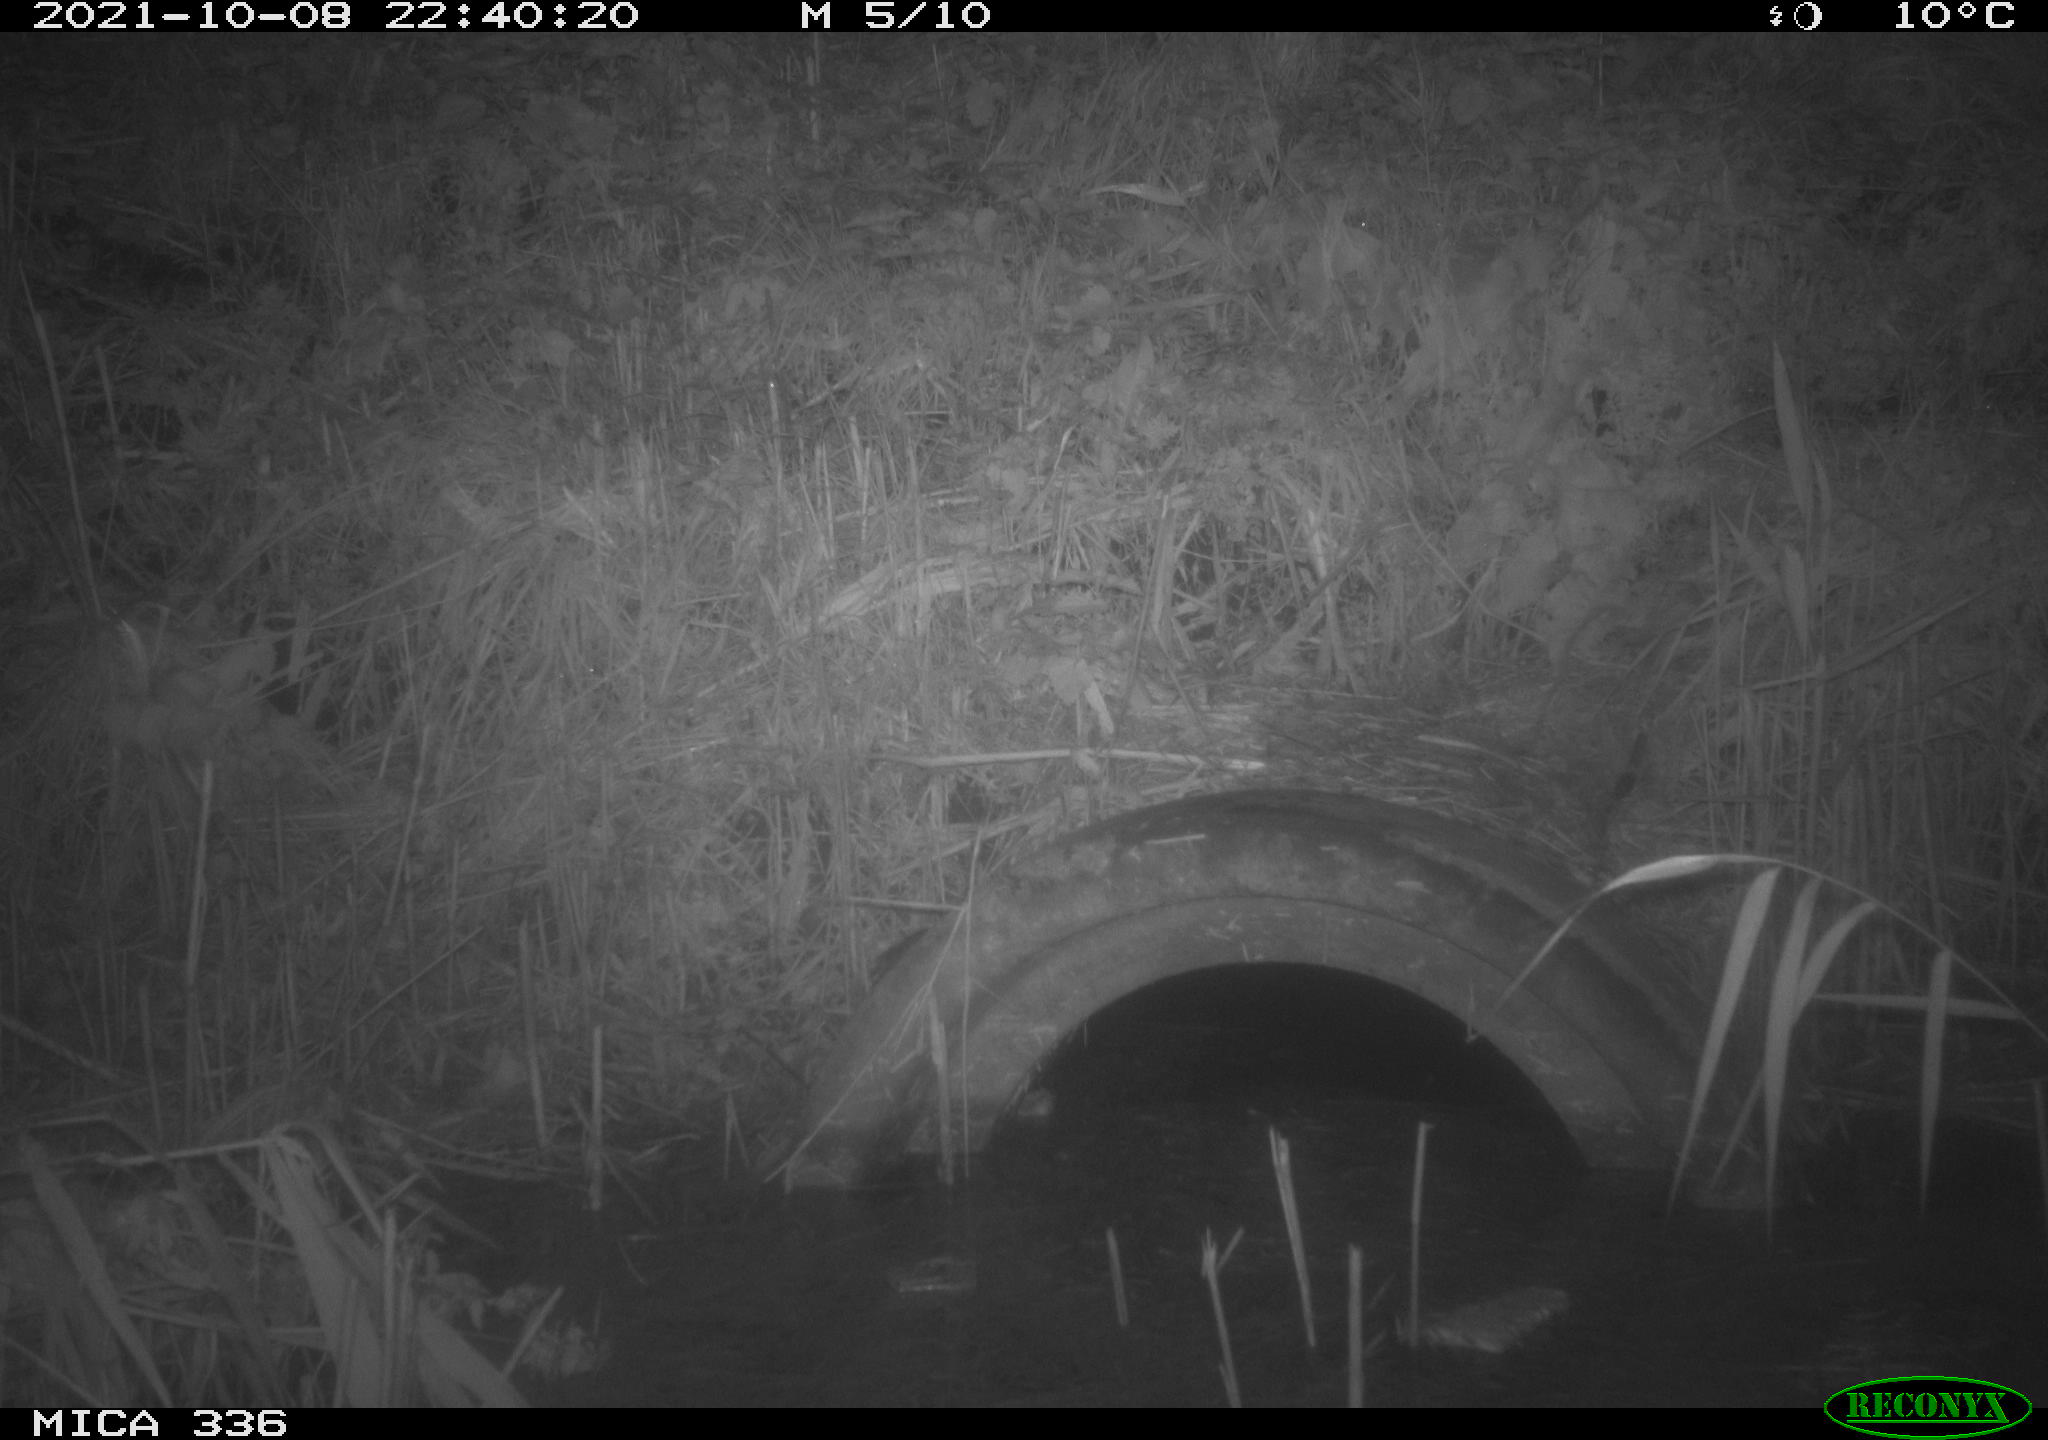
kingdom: Animalia
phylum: Chordata
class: Mammalia
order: Rodentia
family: Muridae
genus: Rattus
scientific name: Rattus norvegicus
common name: Brown rat
